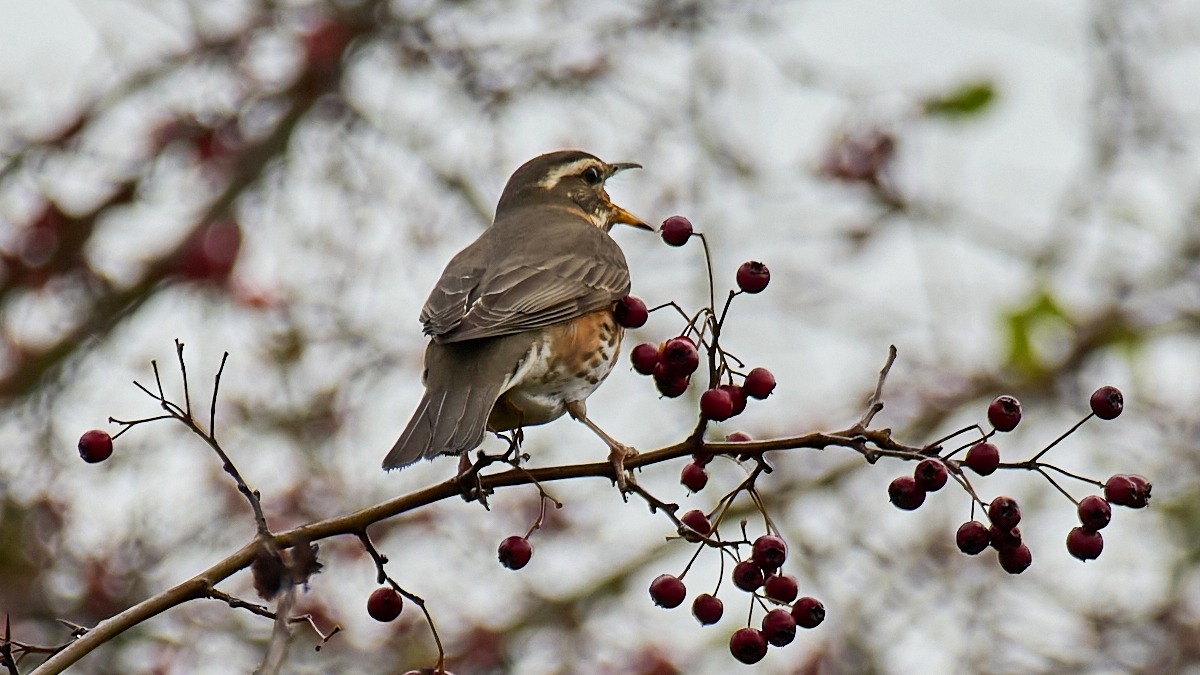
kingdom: Animalia
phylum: Chordata
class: Aves
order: Passeriformes
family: Turdidae
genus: Turdus
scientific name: Turdus iliacus
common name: Vindrossel
